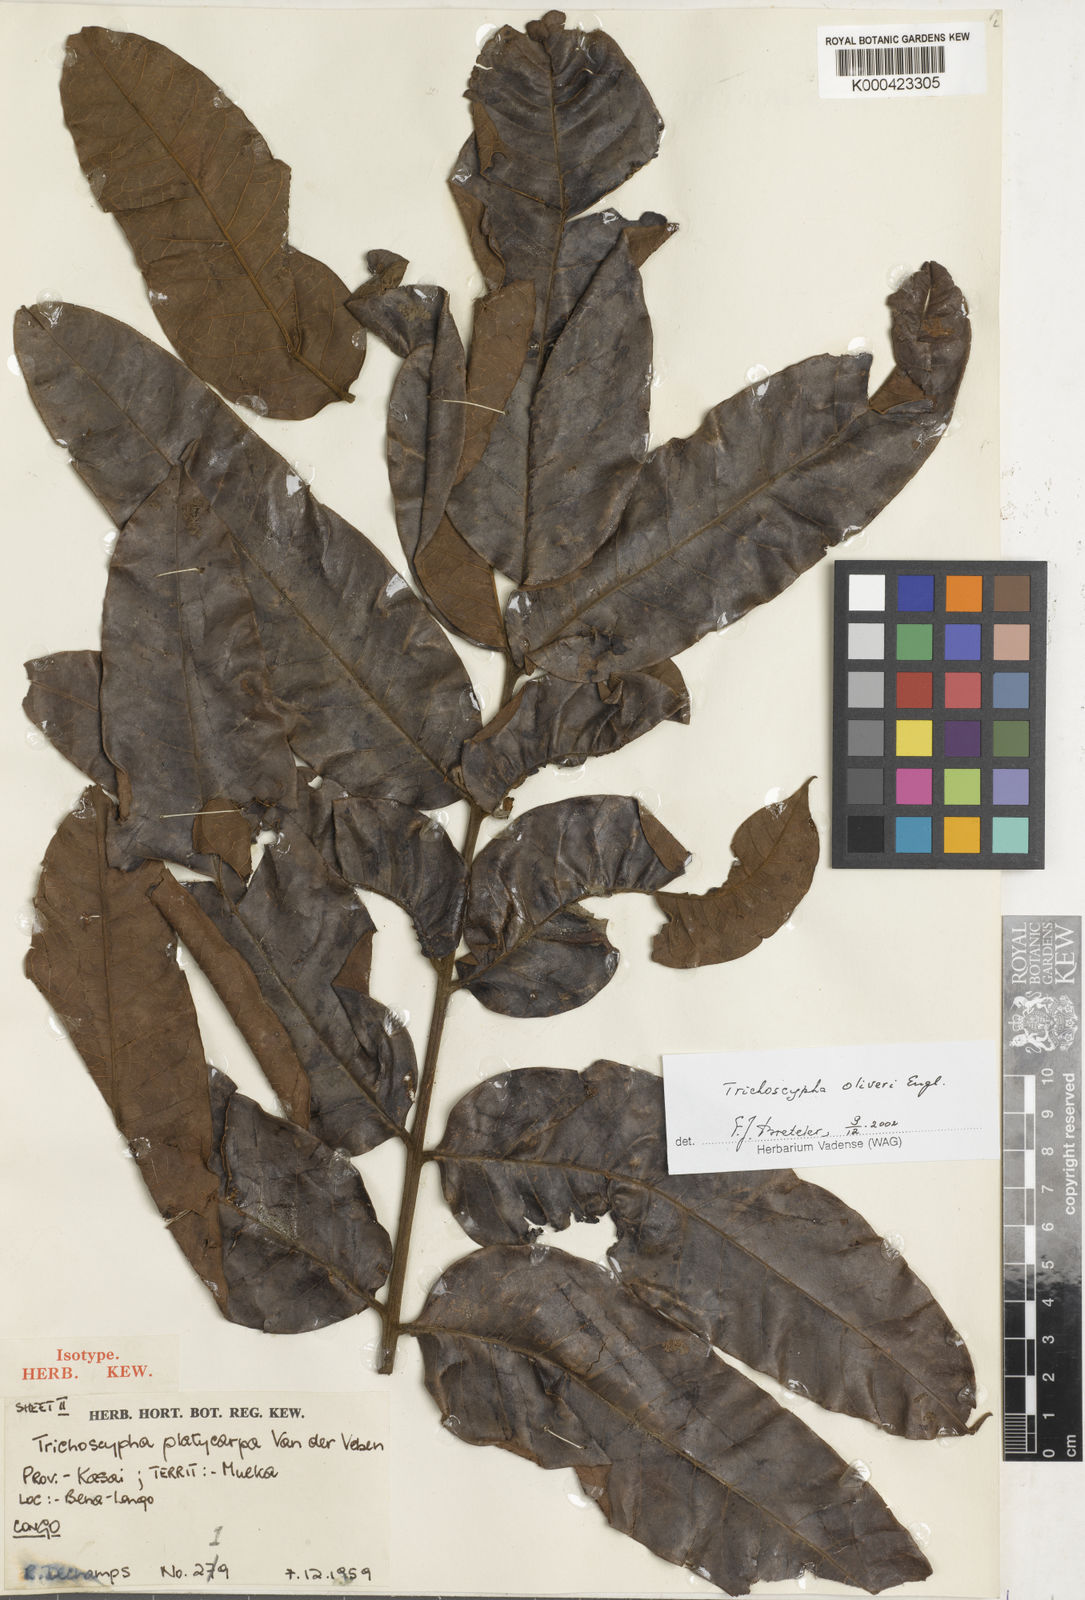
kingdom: Plantae
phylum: Tracheophyta
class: Magnoliopsida
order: Sapindales
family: Anacardiaceae
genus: Trichoscypha
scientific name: Trichoscypha oliveri
